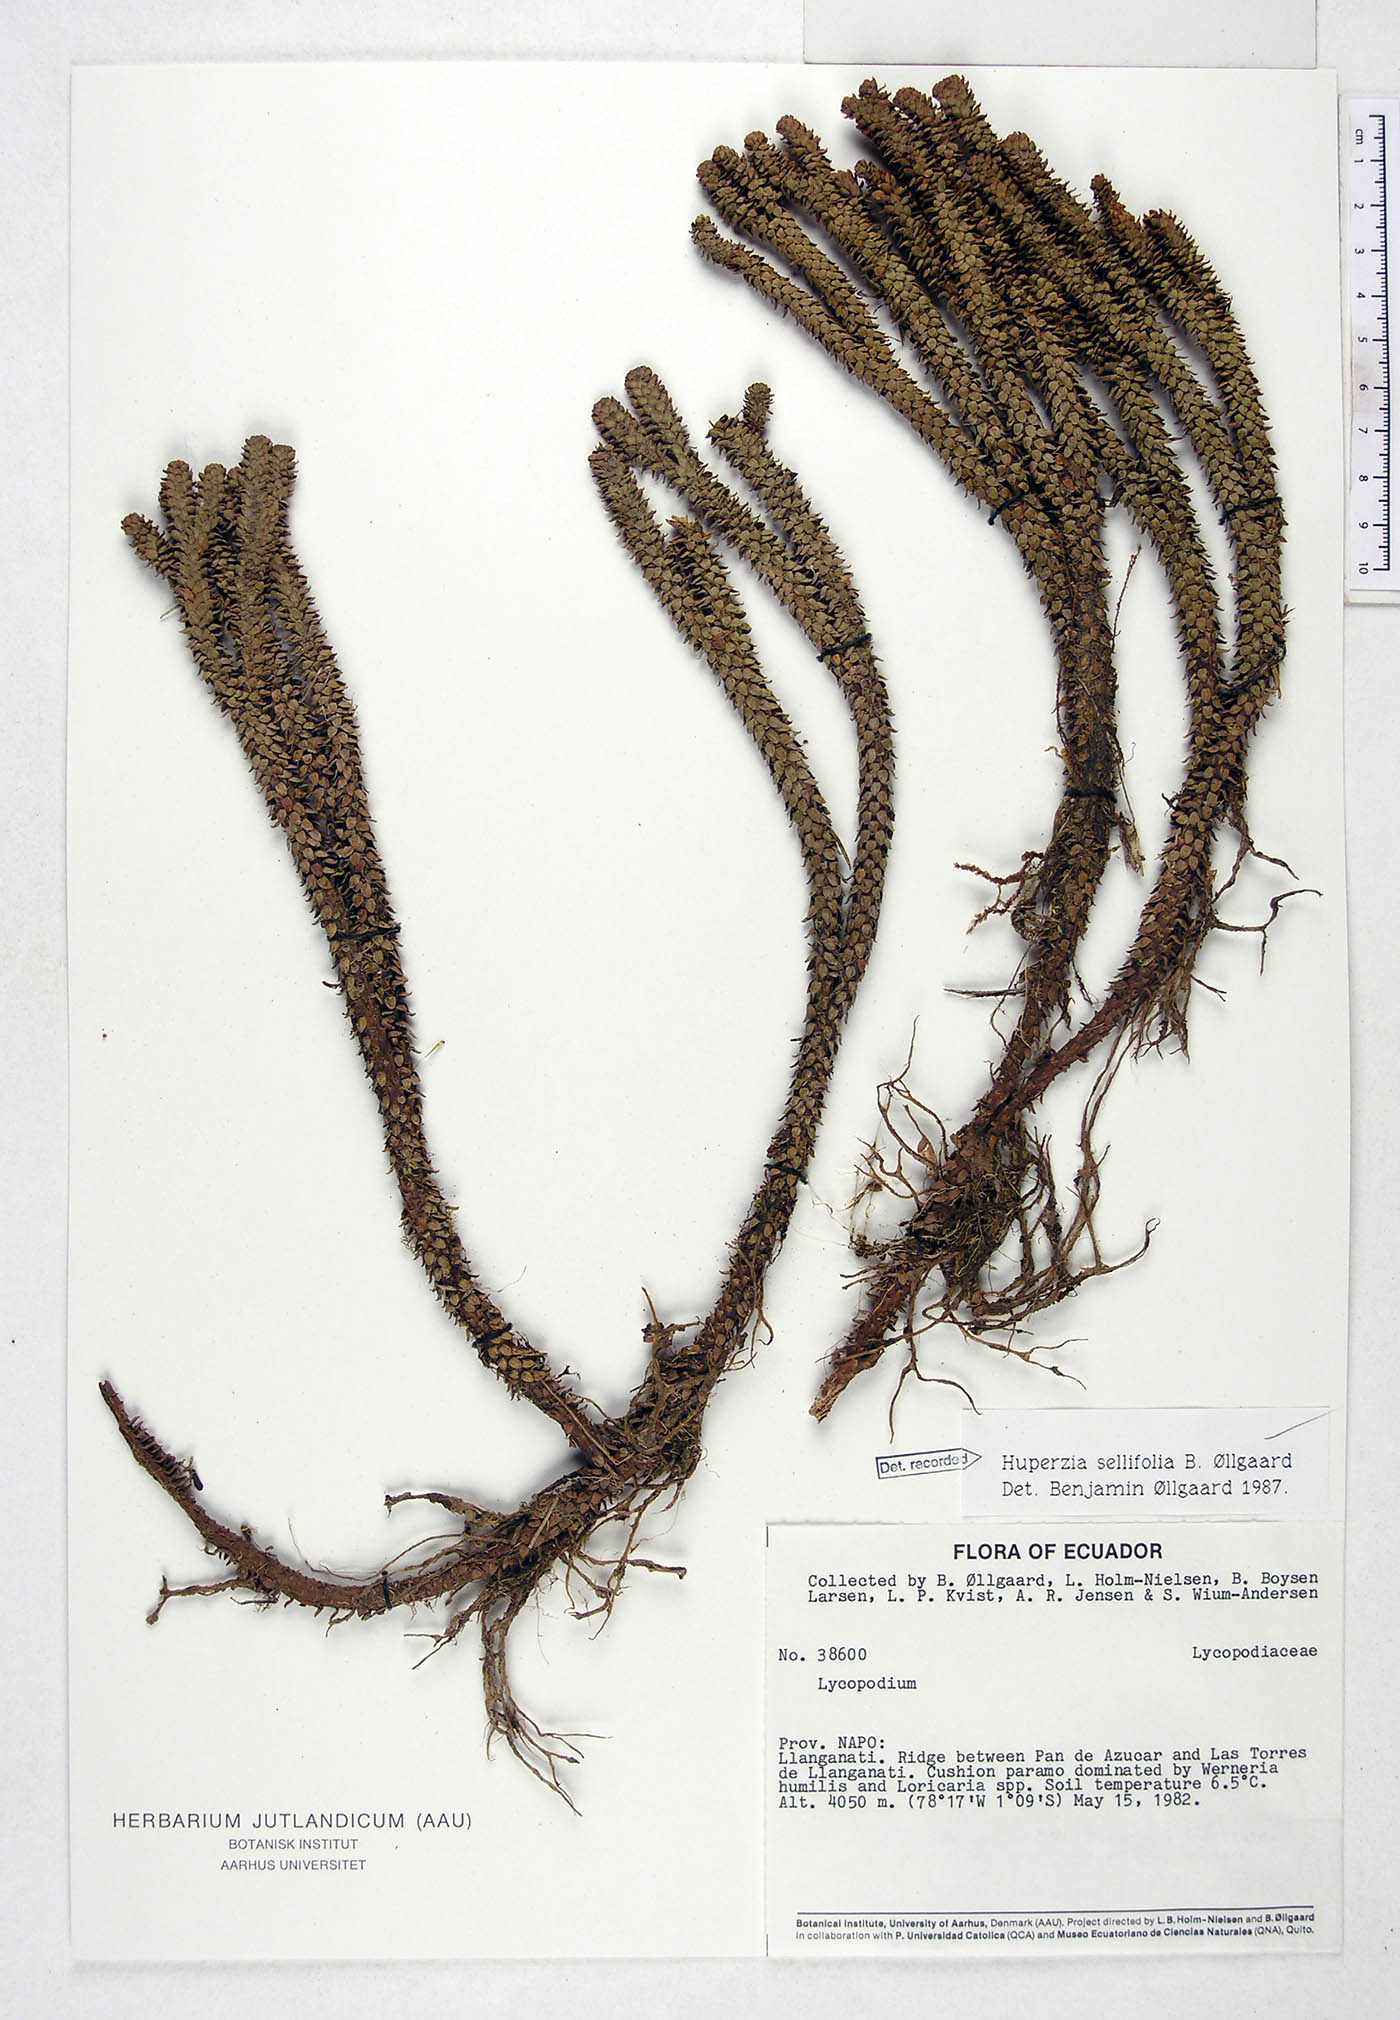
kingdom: Plantae
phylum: Tracheophyta
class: Lycopodiopsida
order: Lycopodiales
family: Lycopodiaceae
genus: Phlegmariurus
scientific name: Phlegmariurus sellifolius
